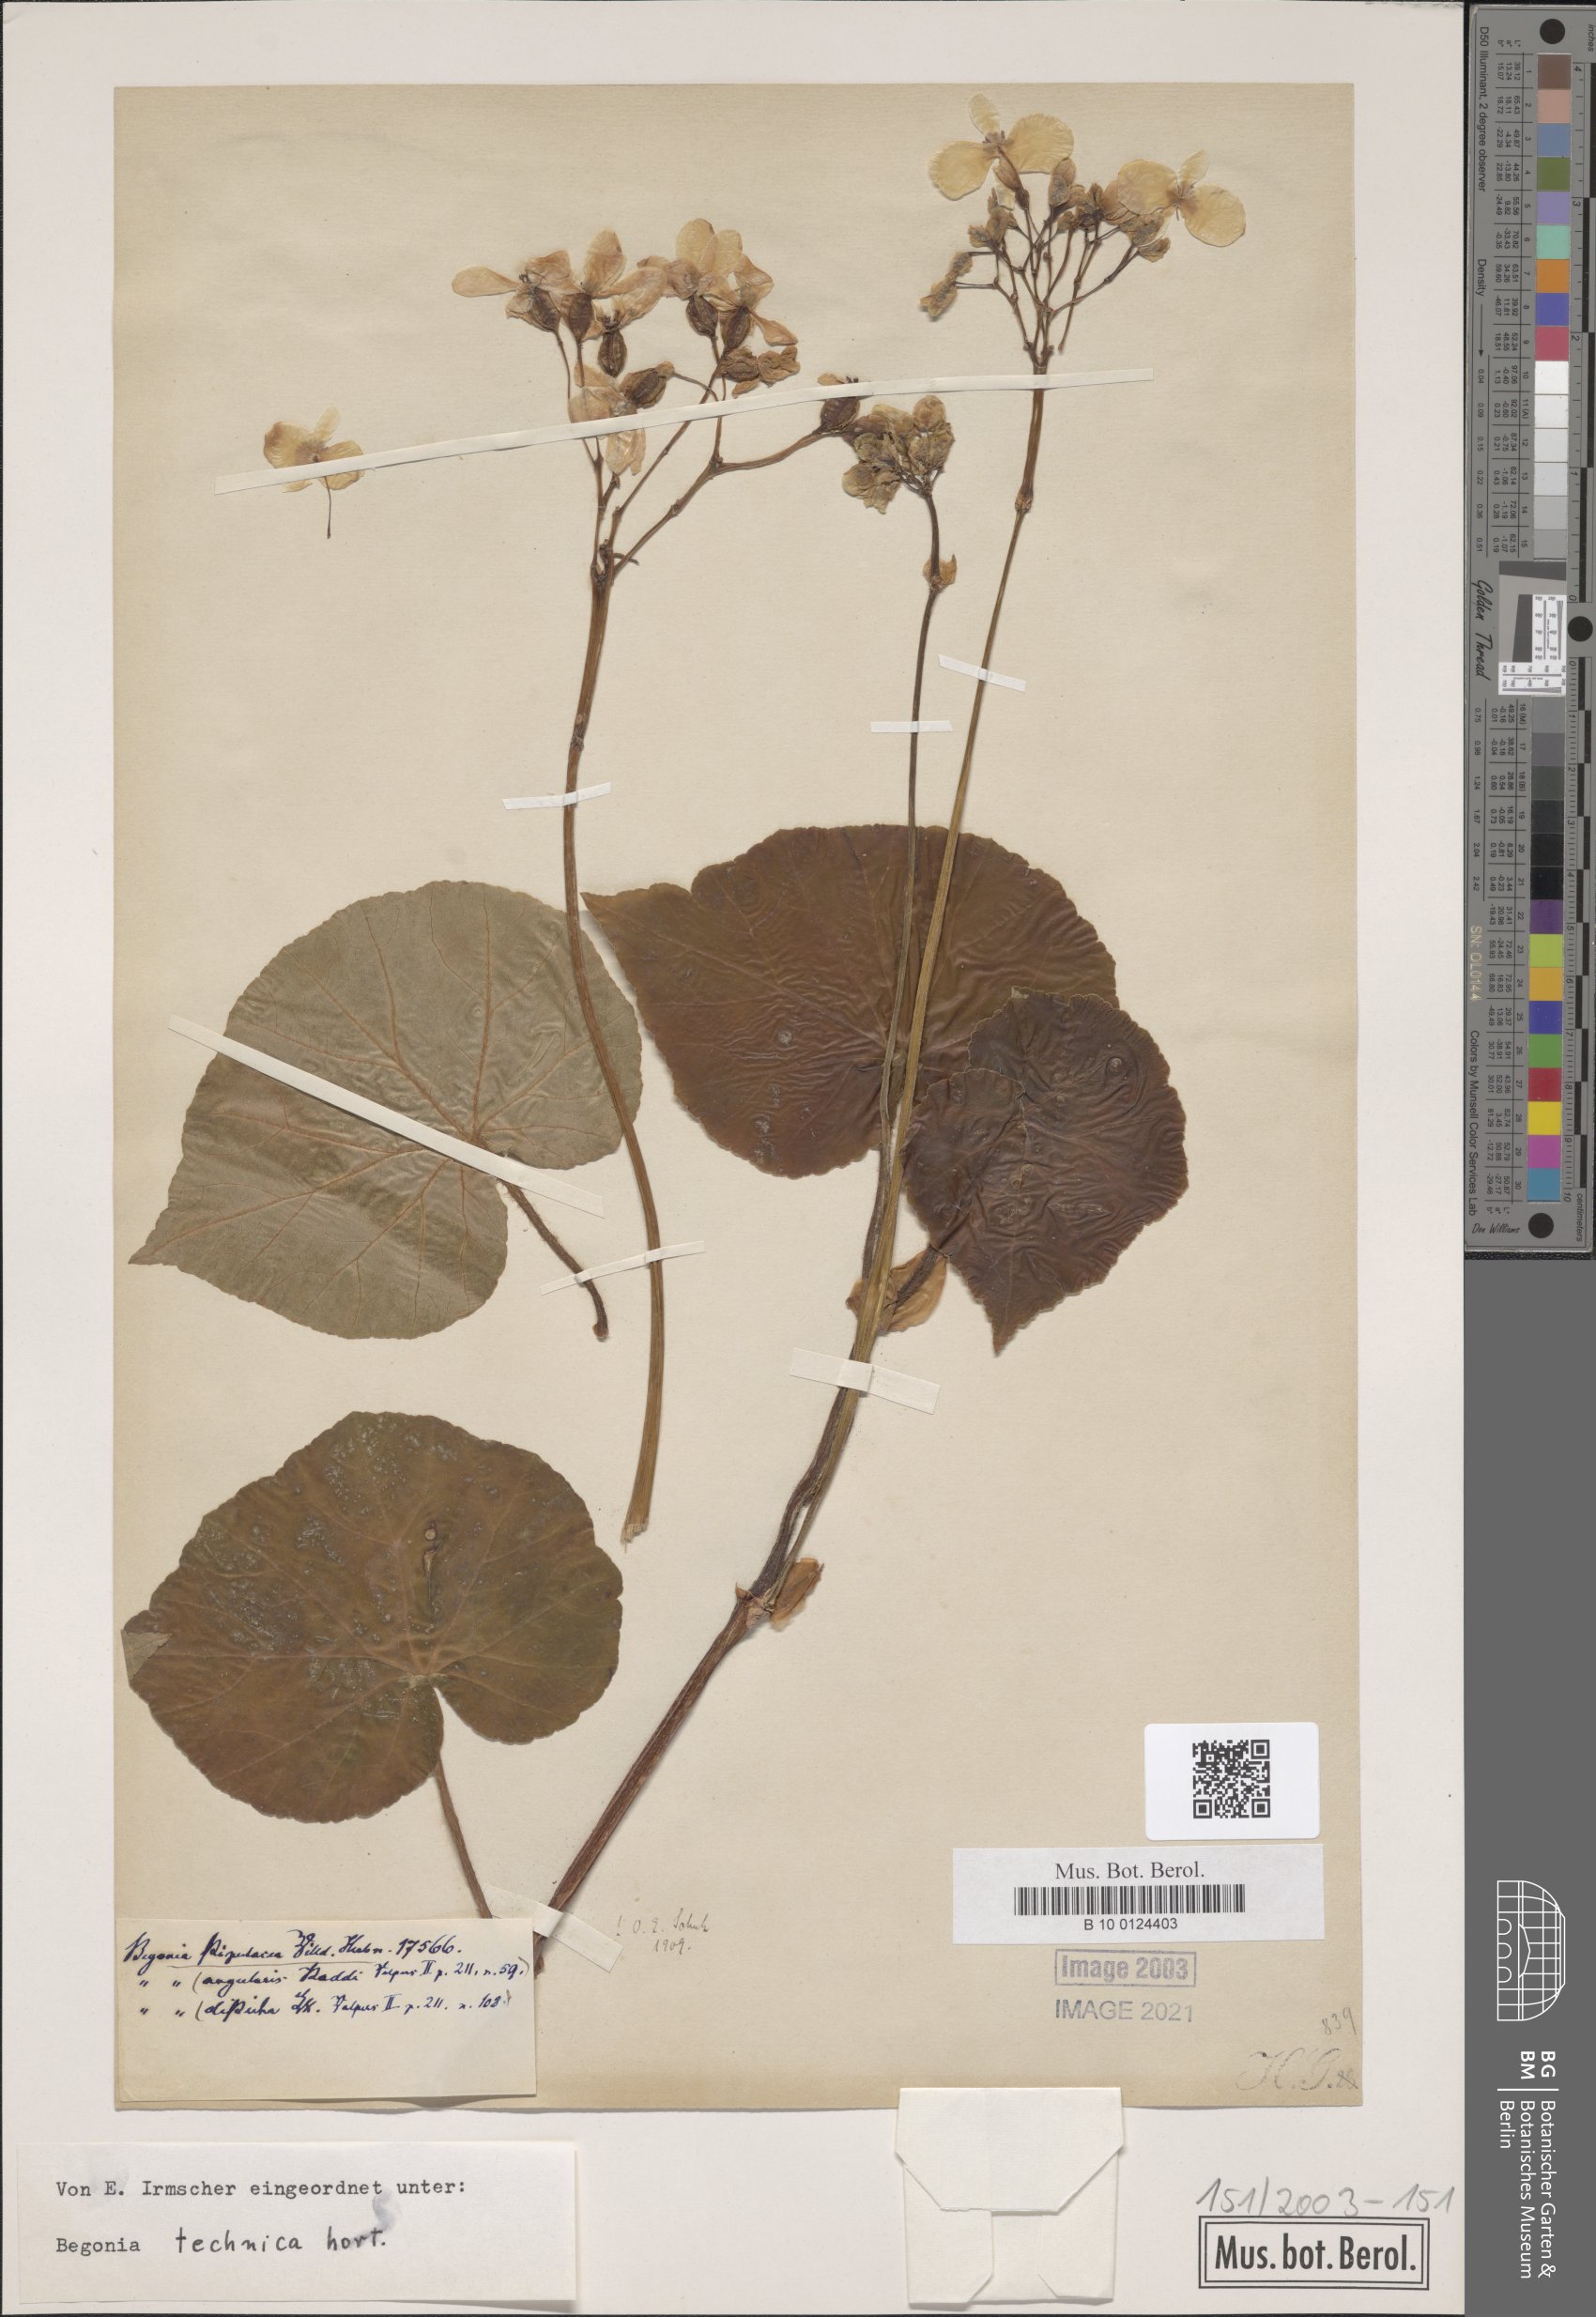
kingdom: Plantae
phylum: Tracheophyta
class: Magnoliopsida
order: Cucurbitales
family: Begoniaceae
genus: Begonia
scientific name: Begonia stipularis
